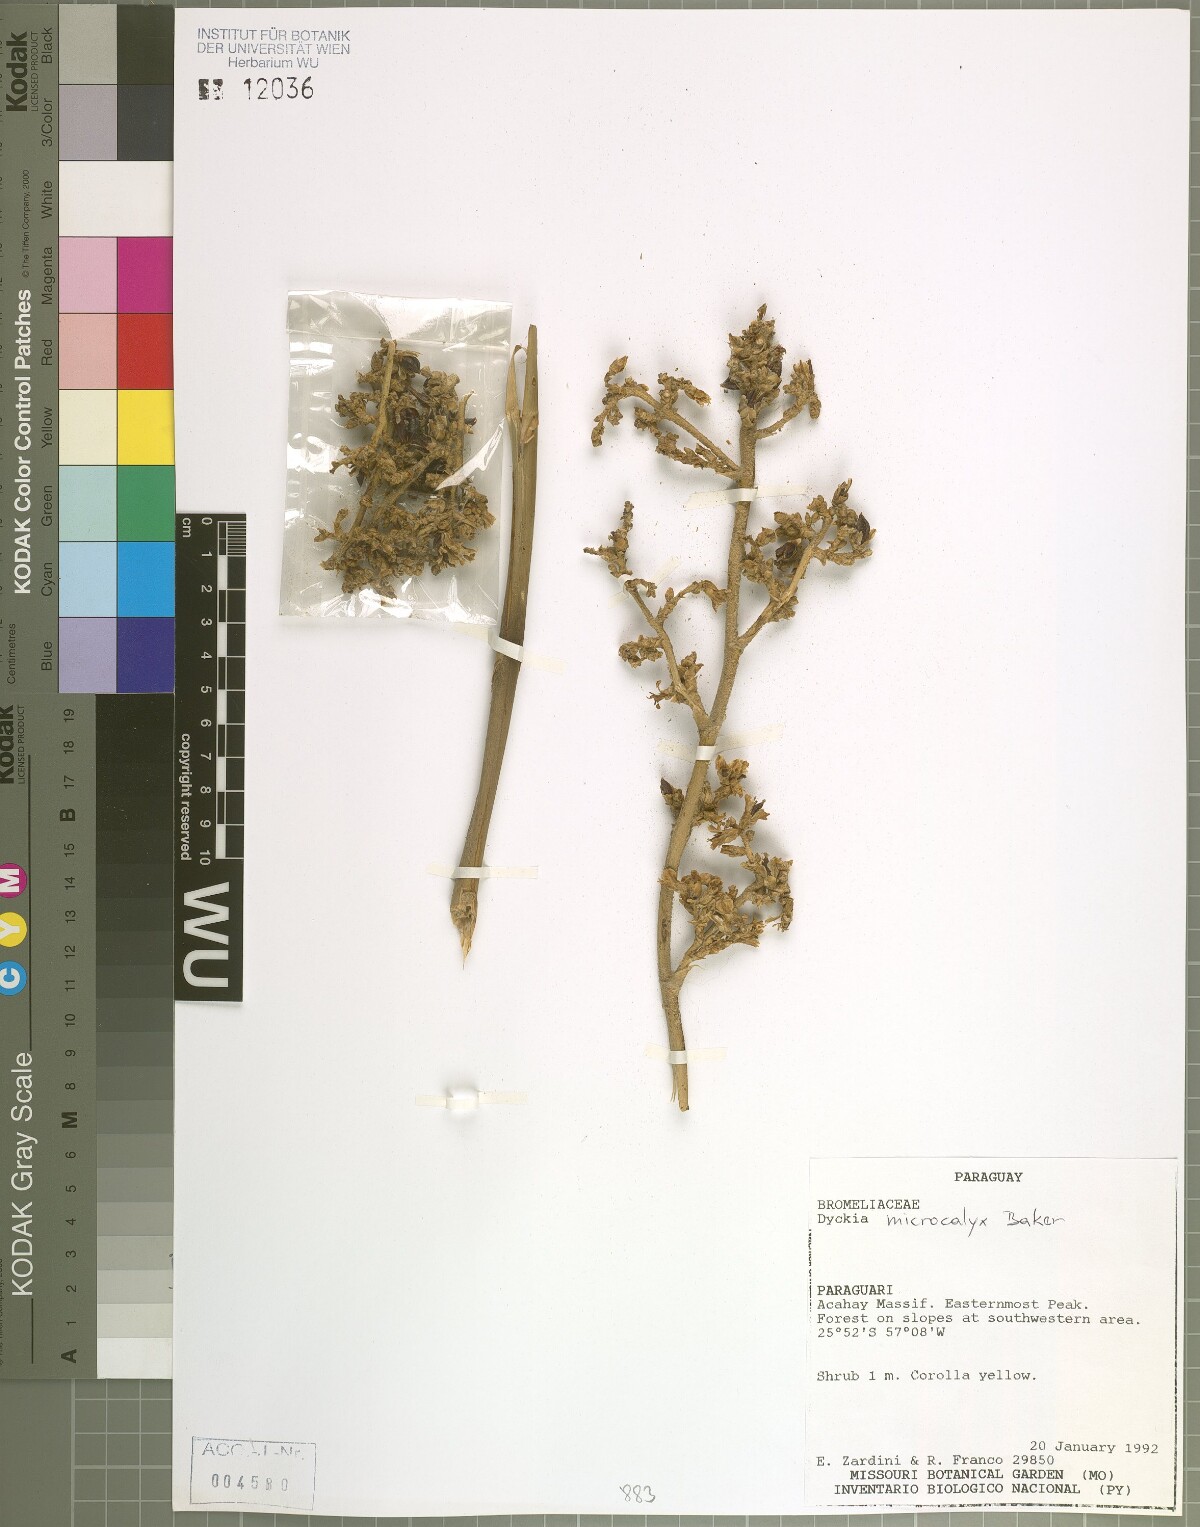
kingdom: Plantae
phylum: Tracheophyta
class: Liliopsida
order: Poales
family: Bromeliaceae
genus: Dyckia
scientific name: Dyckia microcalyx
